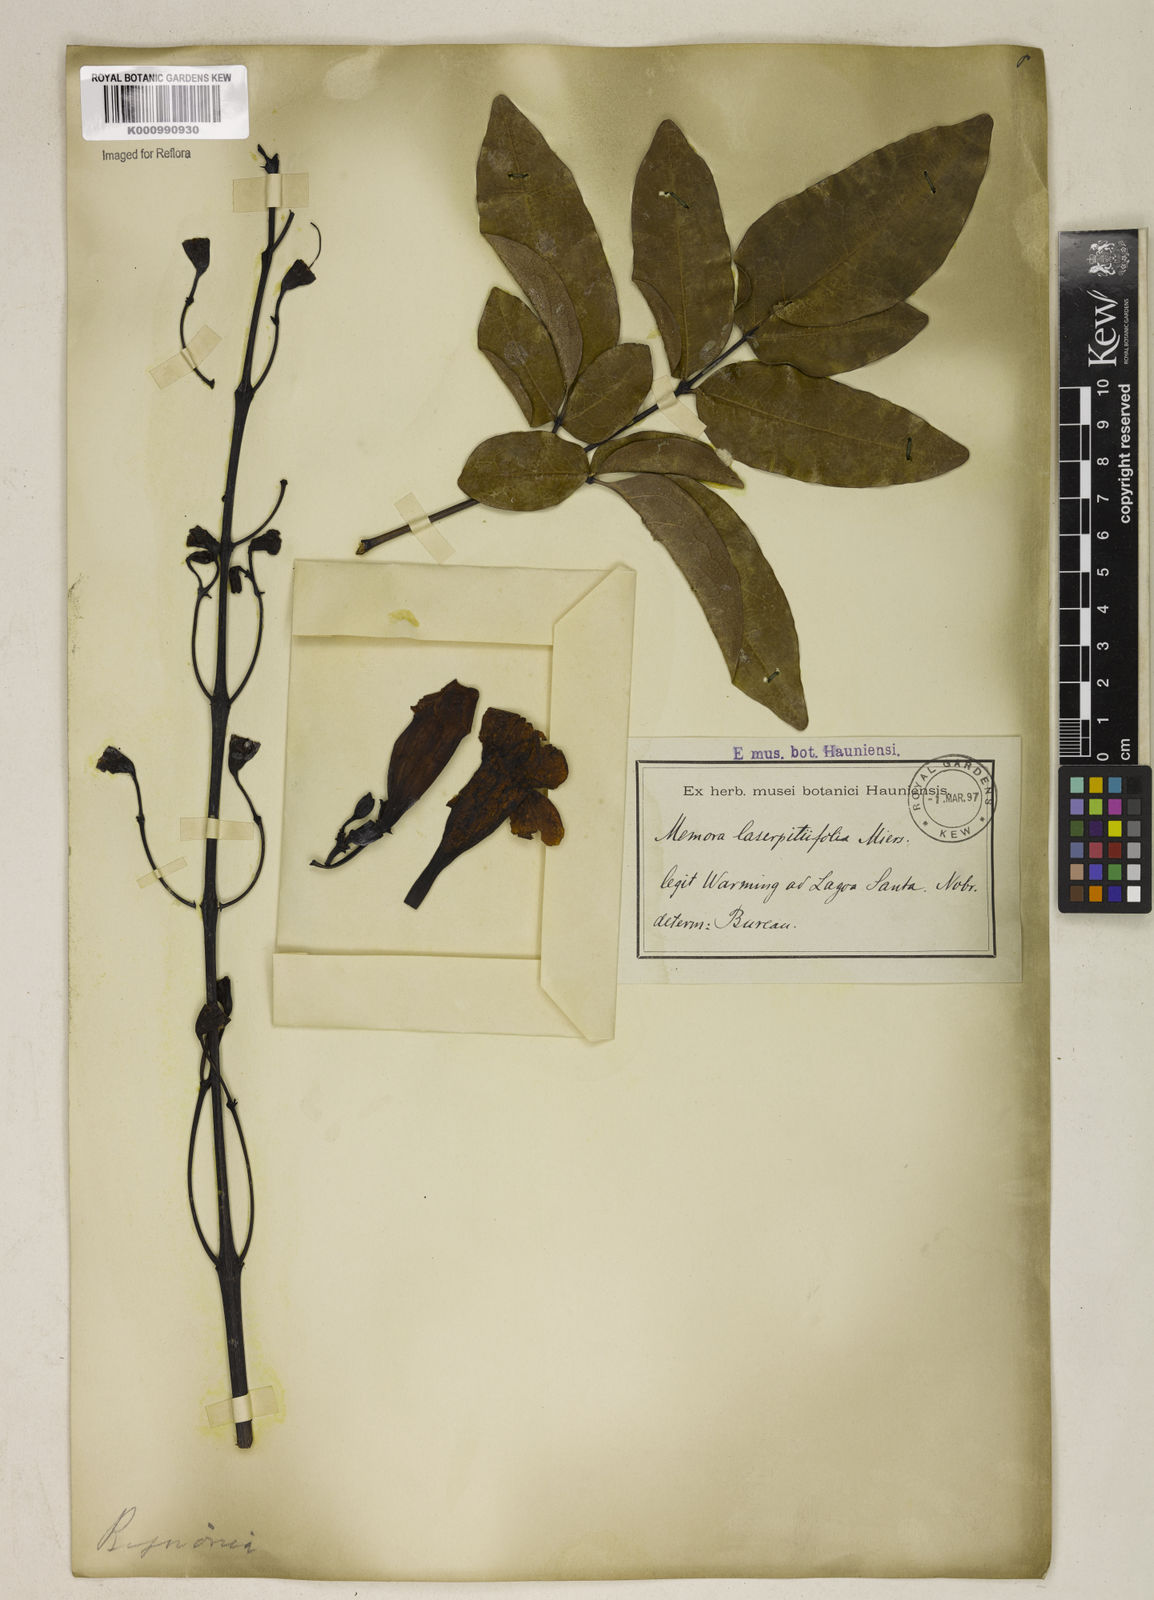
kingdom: Plantae
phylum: Tracheophyta
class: Magnoliopsida
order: Lamiales
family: Bignoniaceae
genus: Adenocalymma
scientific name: Adenocalymma pedunculatum
